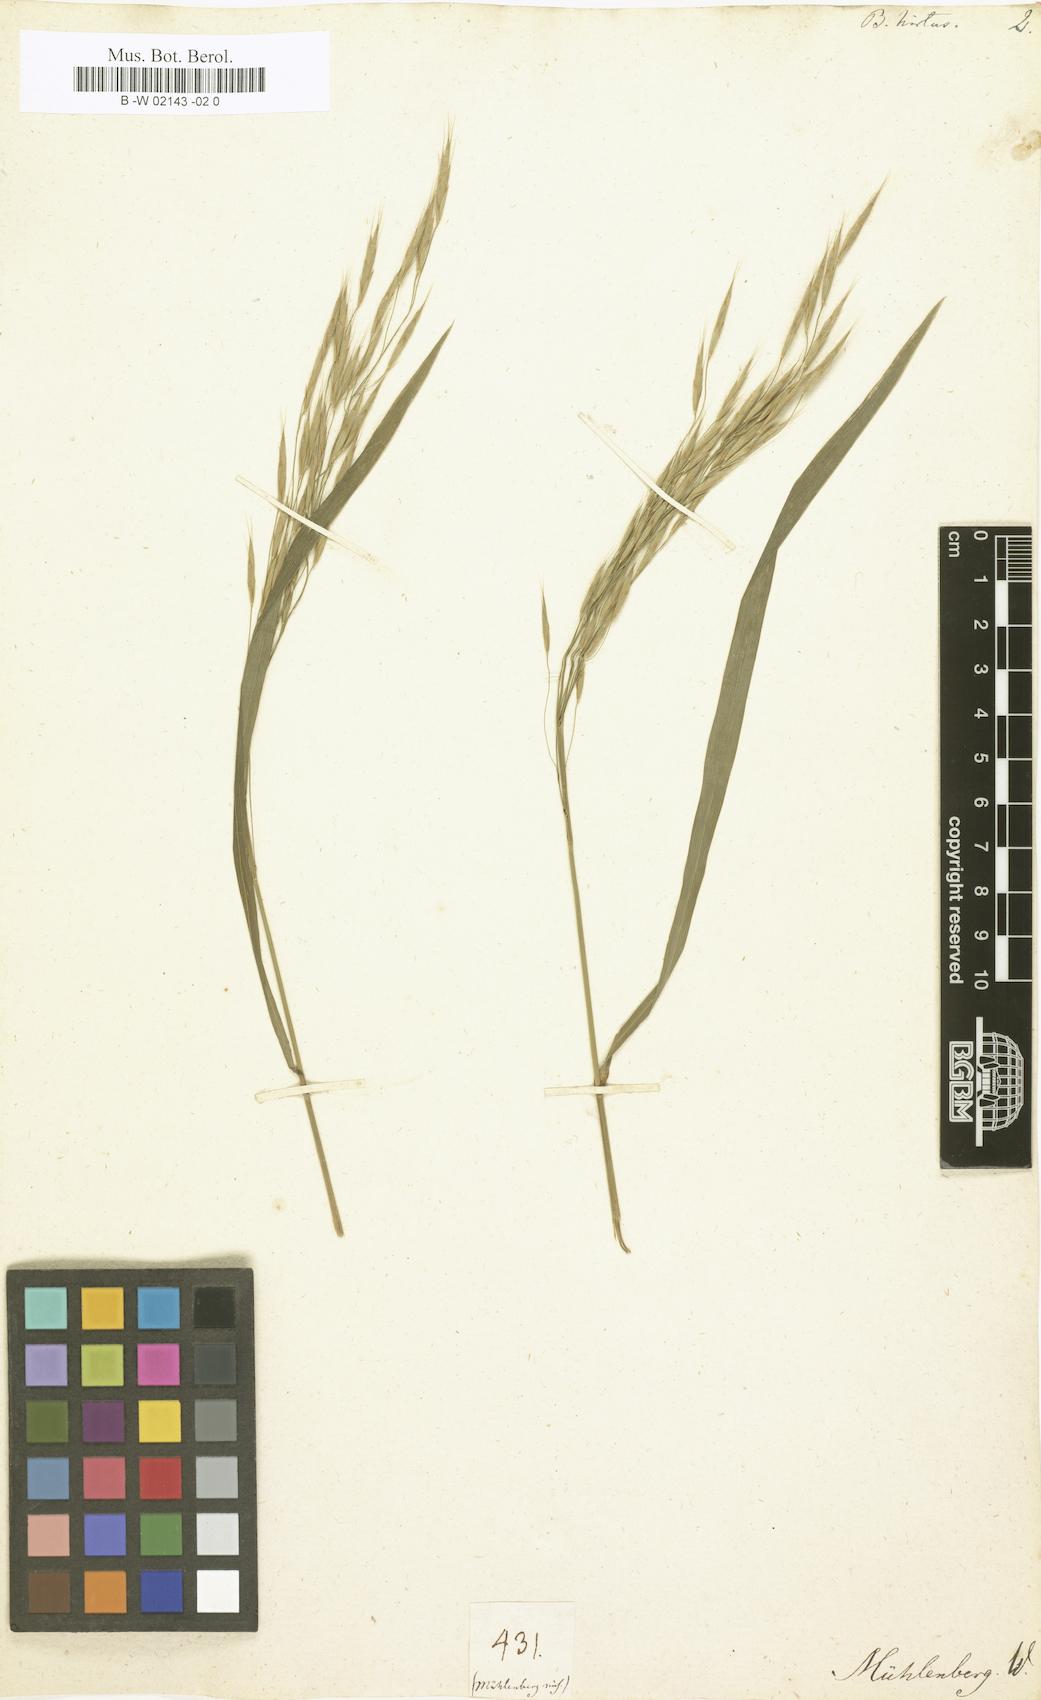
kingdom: Plantae
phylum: Tracheophyta
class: Liliopsida
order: Poales
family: Poaceae
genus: Bromus
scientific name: Bromus japonicus
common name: Japanese brome
